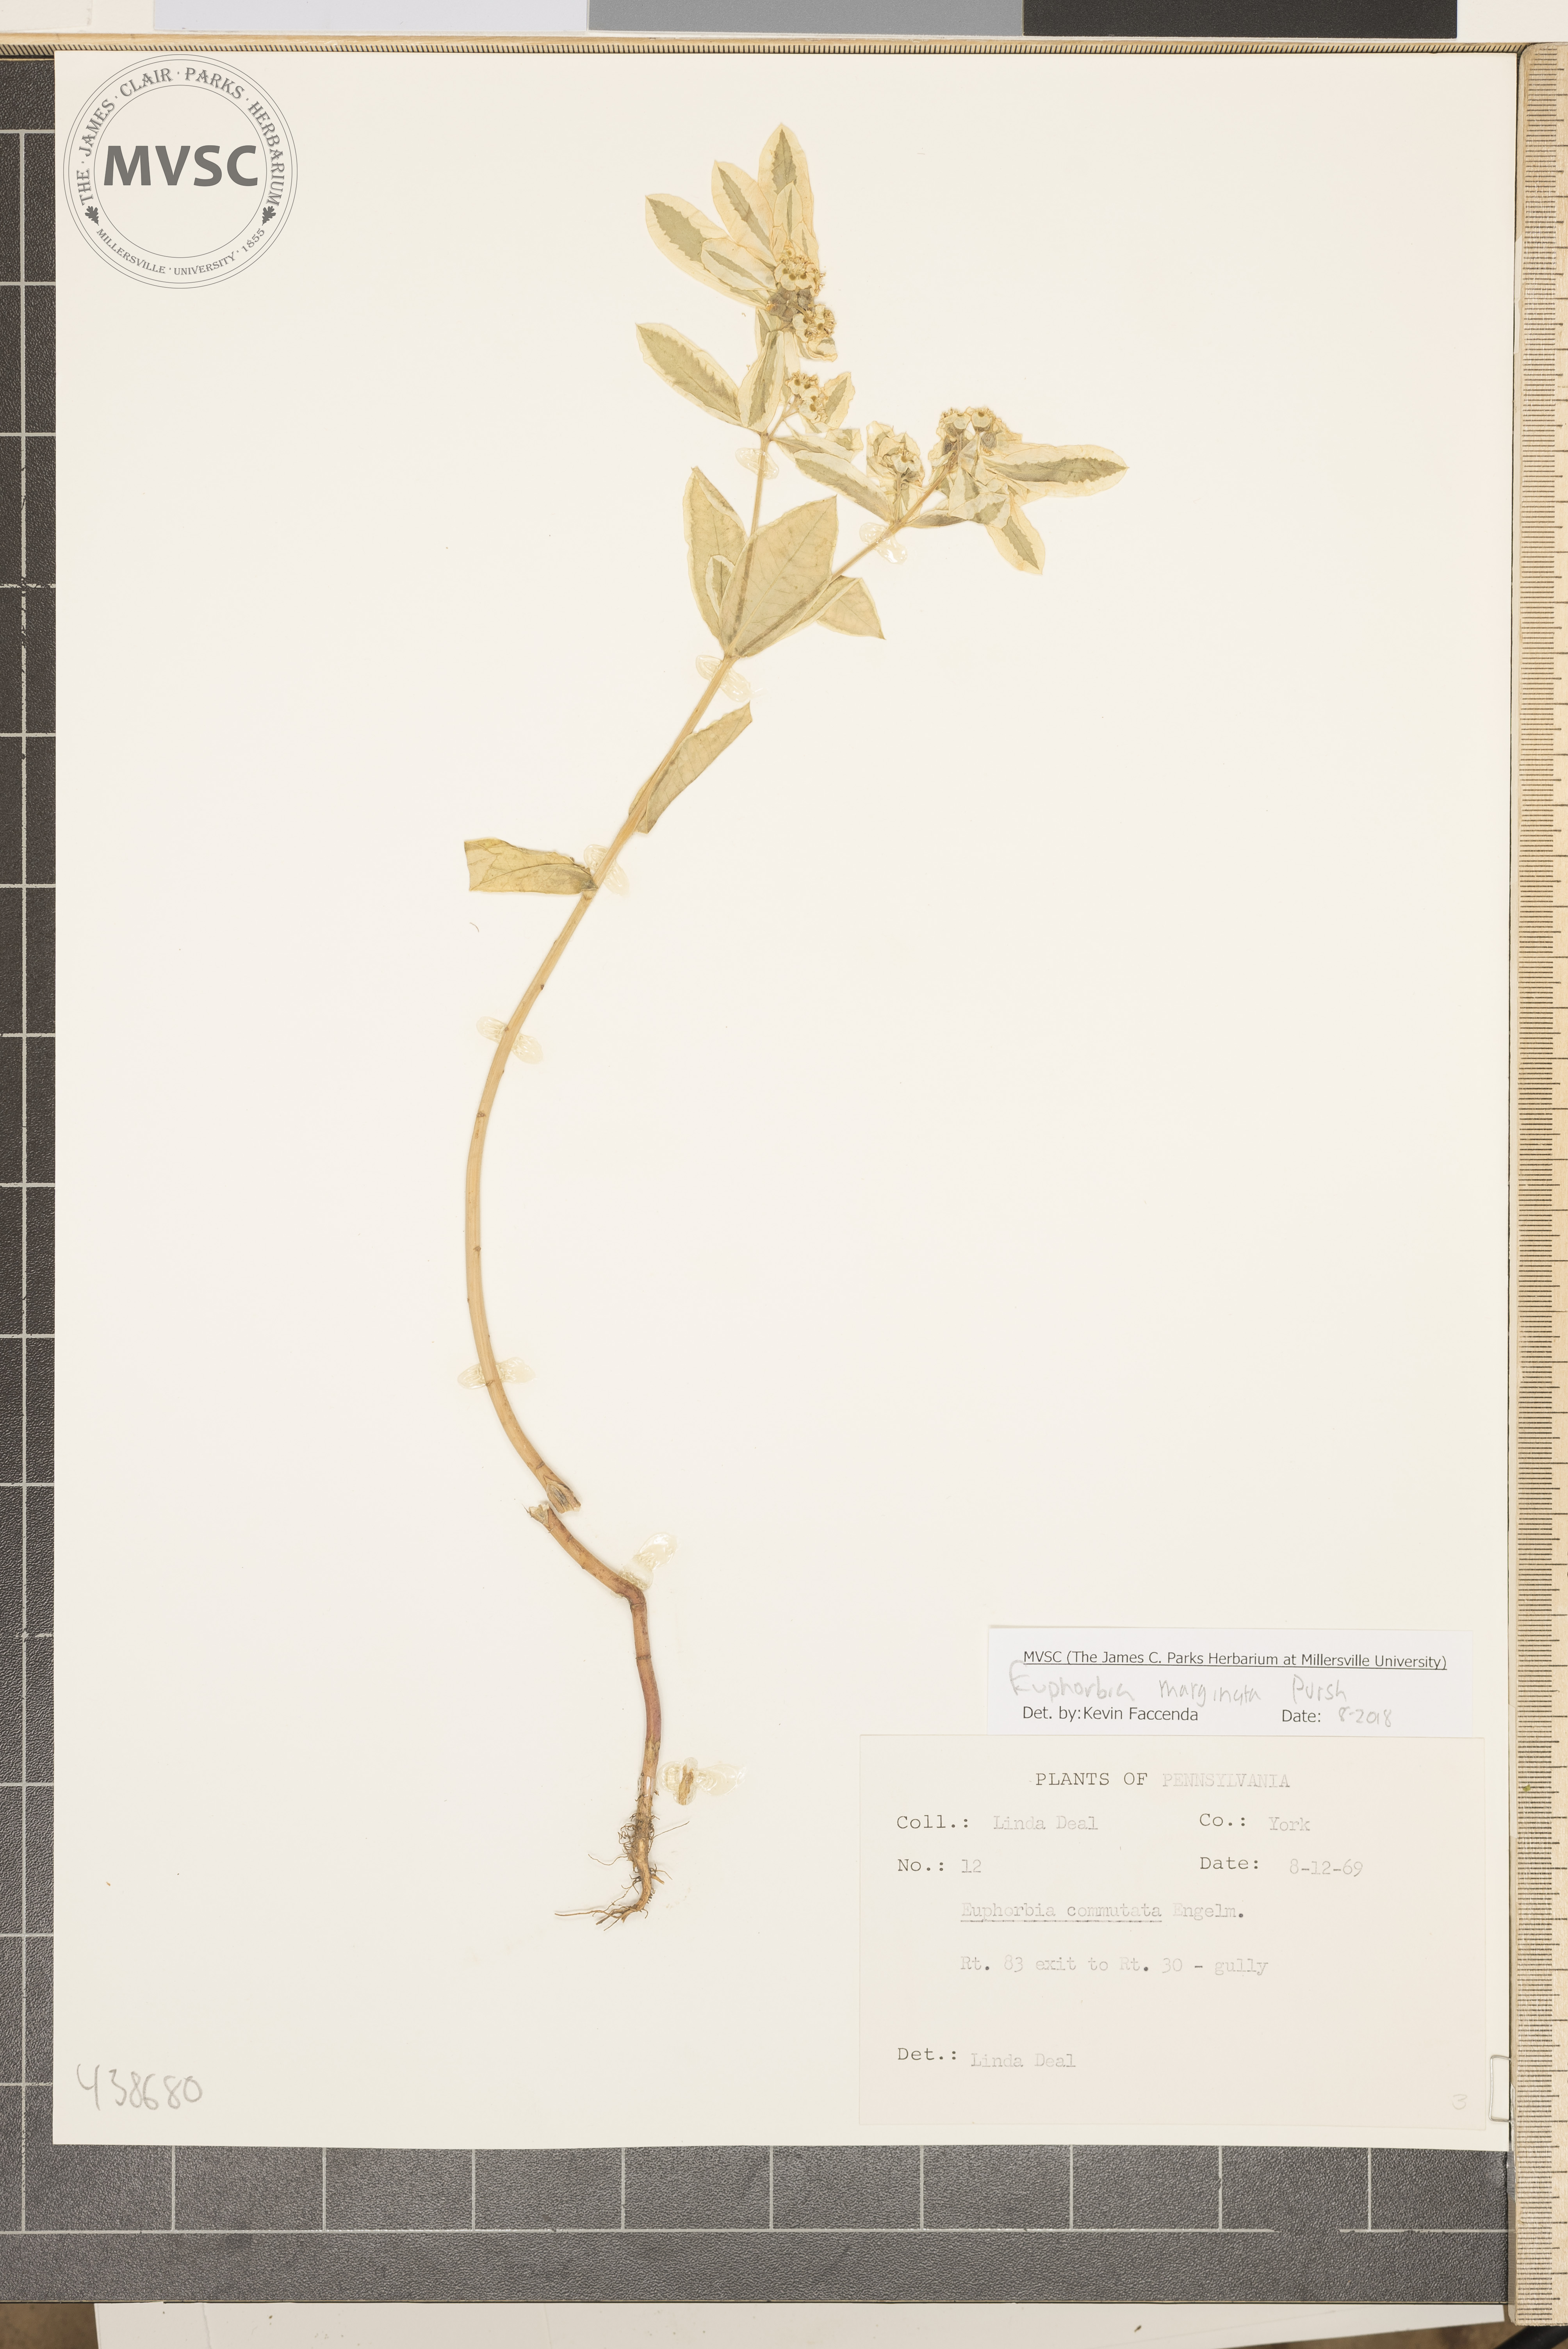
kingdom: Plantae
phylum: Tracheophyta
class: Magnoliopsida
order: Malpighiales
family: Euphorbiaceae
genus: Euphorbia
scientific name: Euphorbia marginata
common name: Ghostweed
